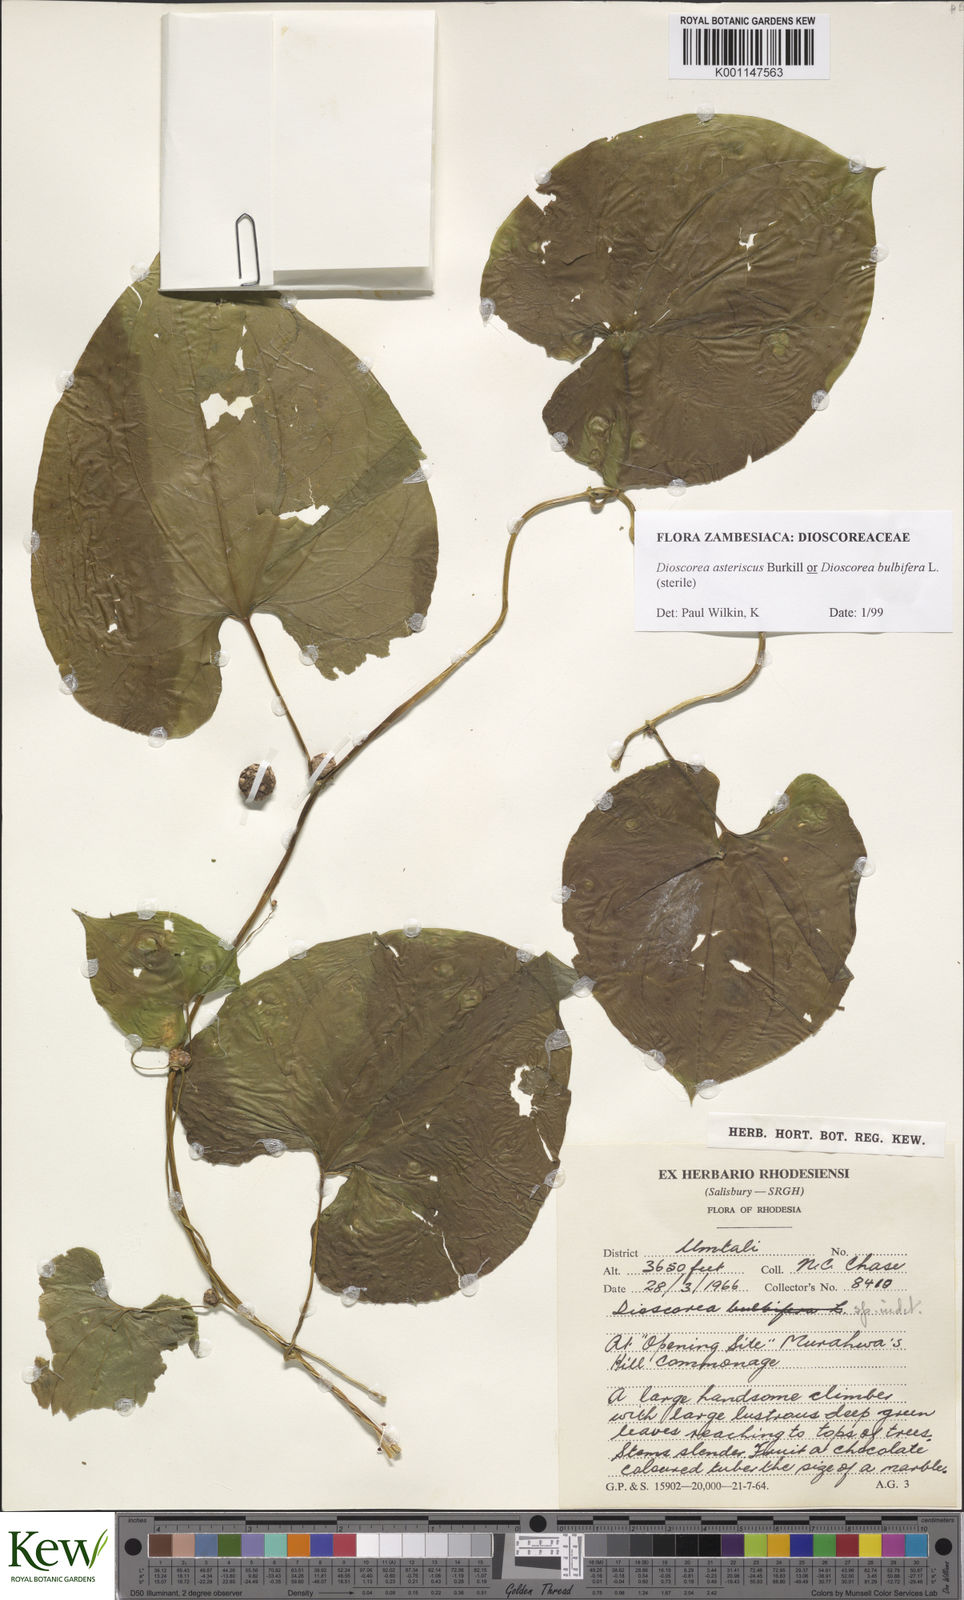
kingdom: Plantae
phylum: Tracheophyta
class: Liliopsida
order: Dioscoreales
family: Dioscoreaceae
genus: Dioscorea
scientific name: Dioscorea asteriscus
